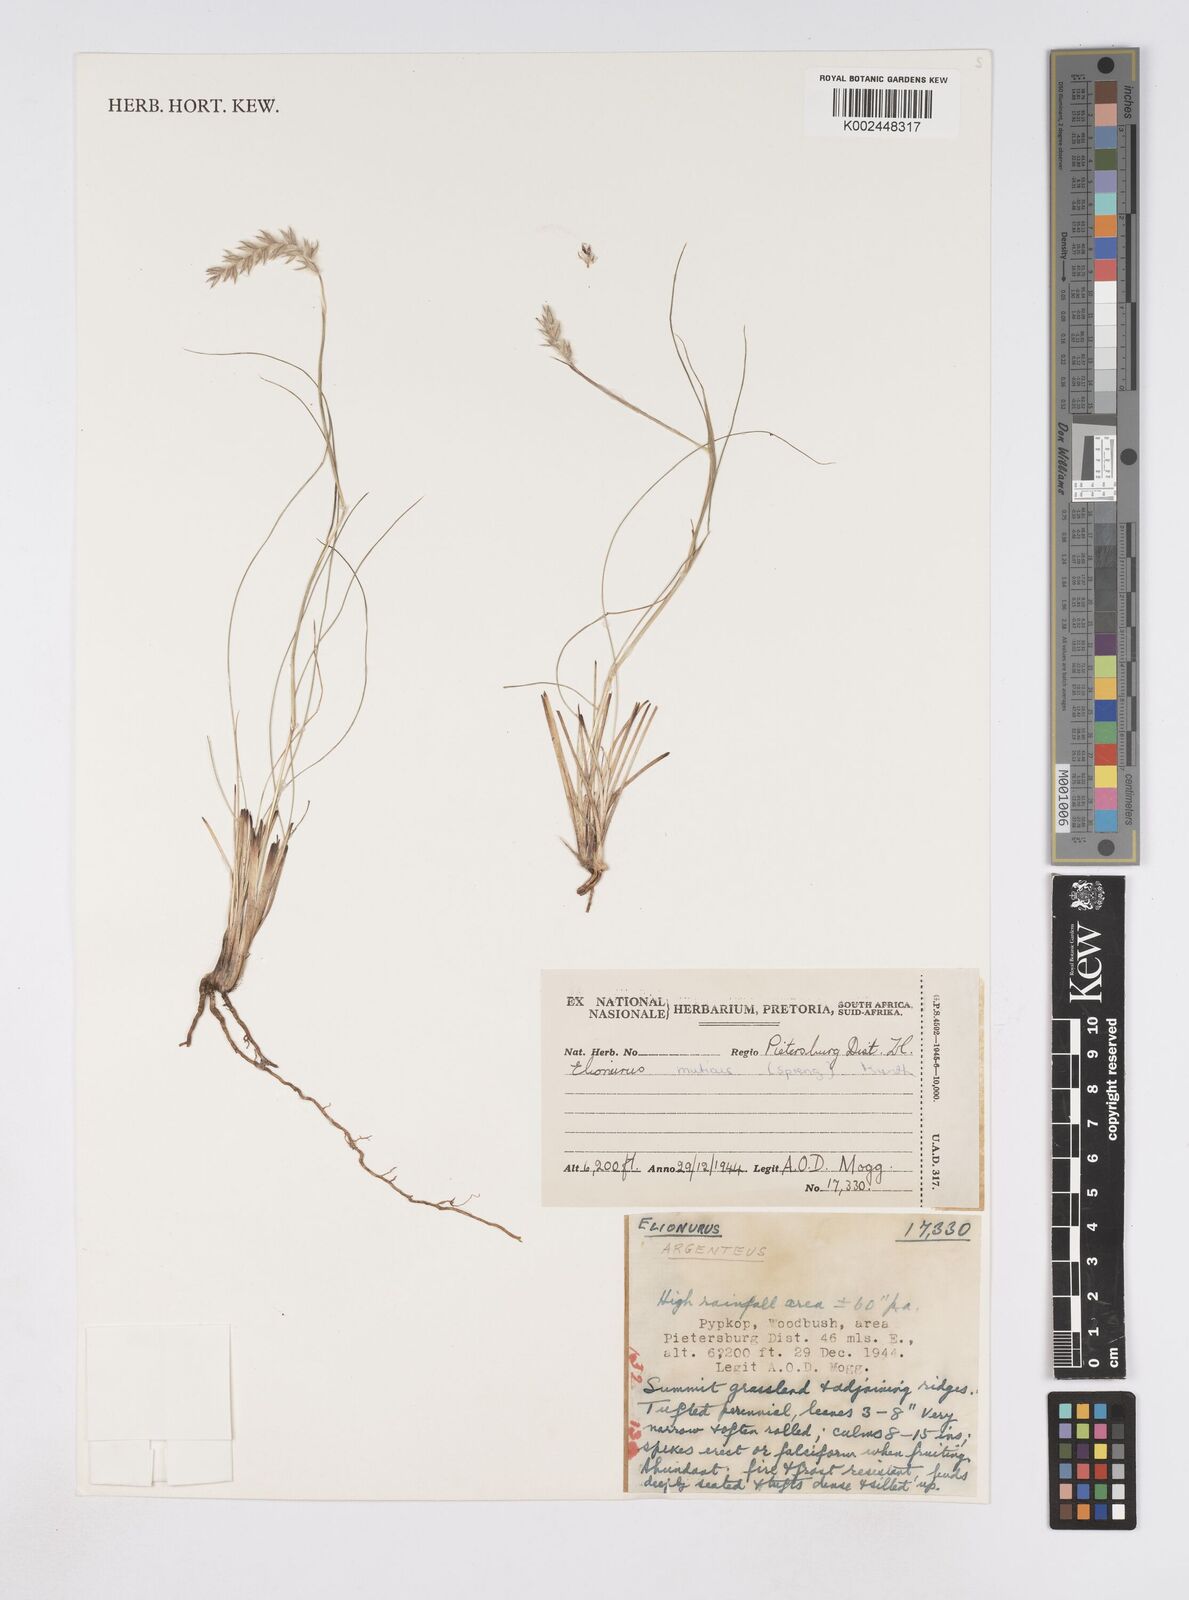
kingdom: Plantae
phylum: Tracheophyta
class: Liliopsida
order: Poales
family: Poaceae
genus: Elionurus
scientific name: Elionurus muticus
